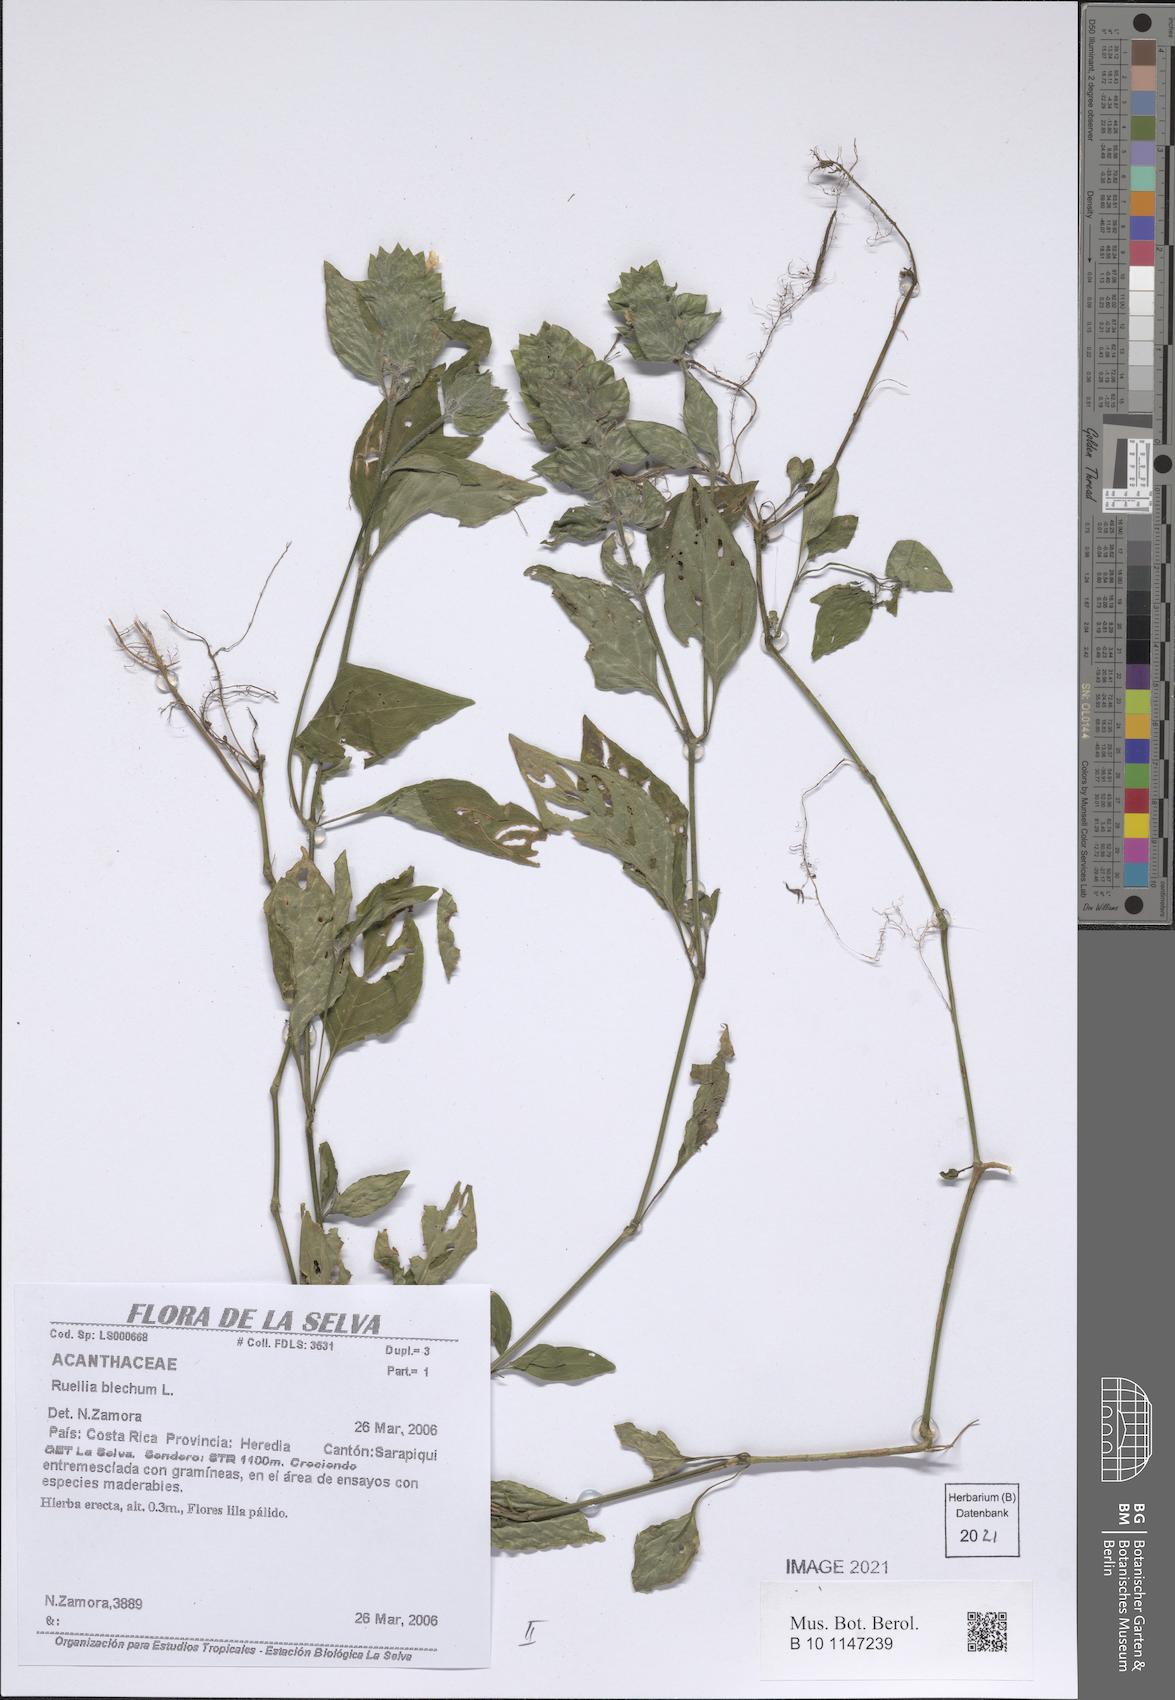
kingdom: Plantae
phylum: Tracheophyta
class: Magnoliopsida
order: Lamiales
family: Acanthaceae
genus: Ruellia
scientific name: Ruellia blechum
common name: Browne's blechum
